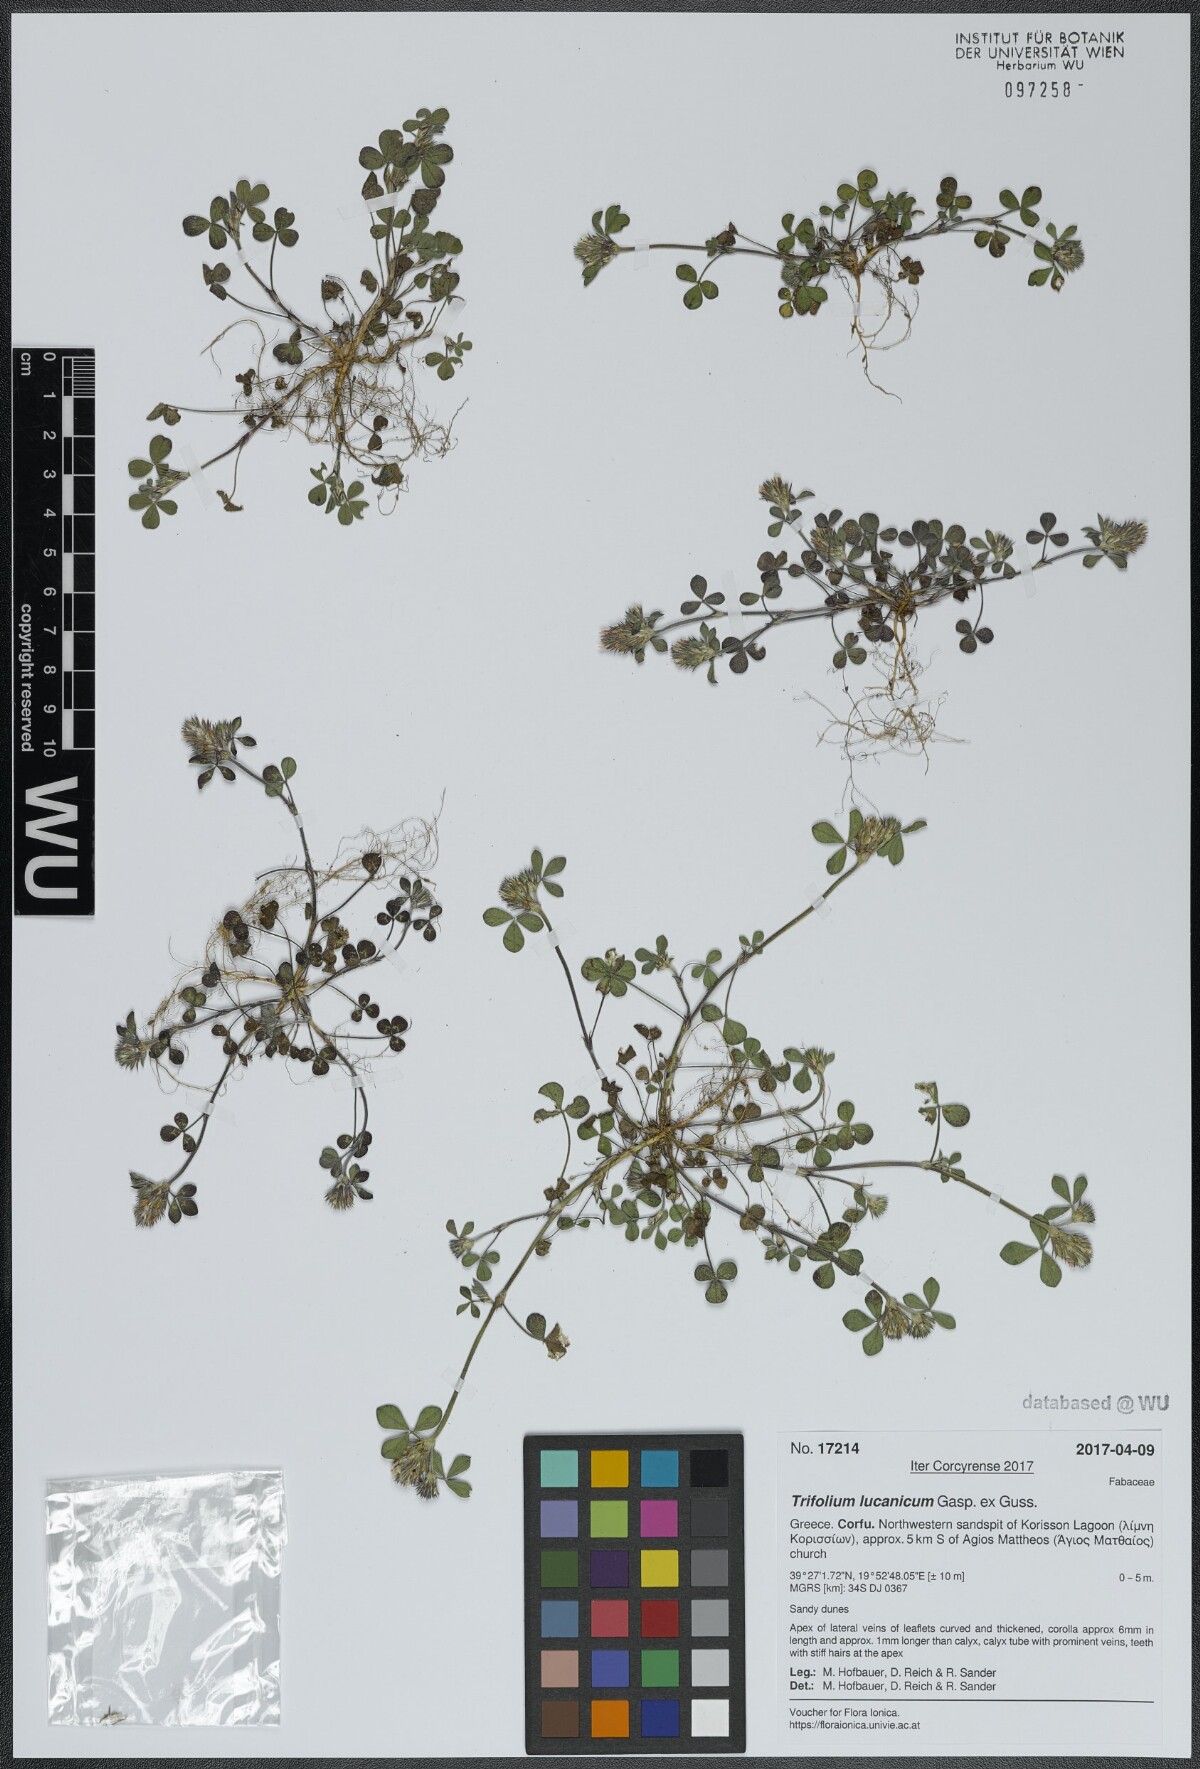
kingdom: Plantae
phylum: Tracheophyta
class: Magnoliopsida
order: Fabales
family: Fabaceae
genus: Trifolium
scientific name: Trifolium lucanicum
